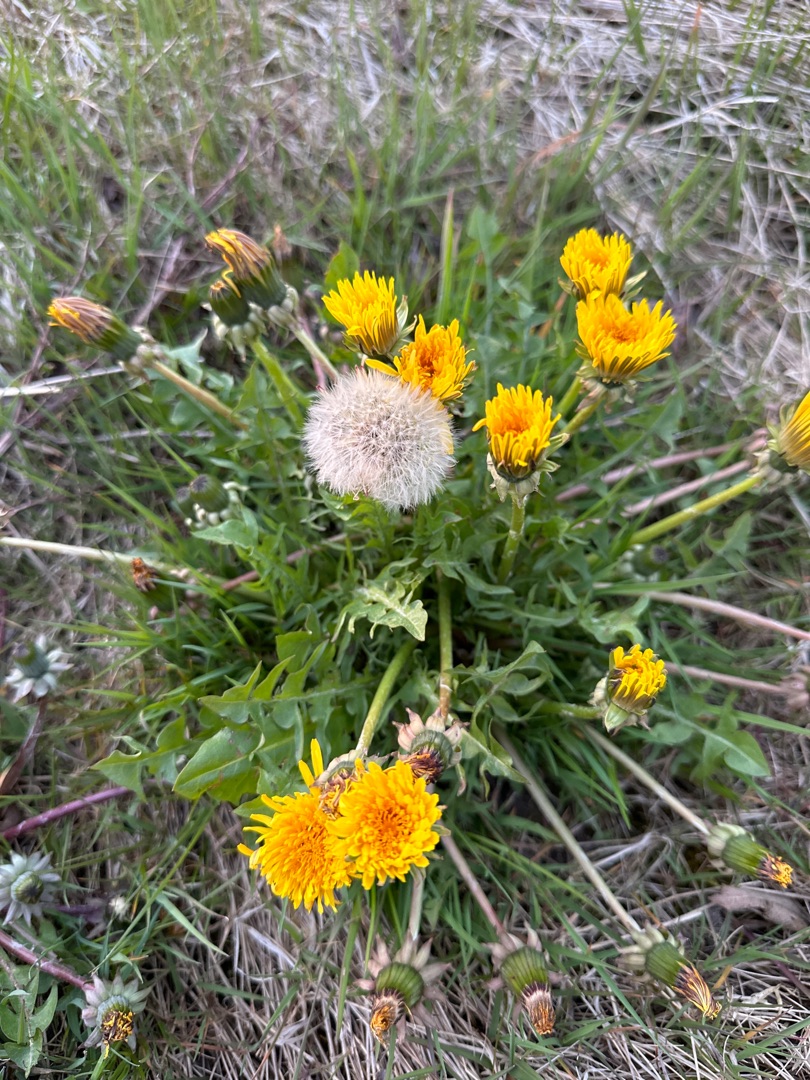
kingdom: Plantae
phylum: Tracheophyta
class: Magnoliopsida
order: Asterales
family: Asteraceae
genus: Taraxacum
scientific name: Taraxacum
